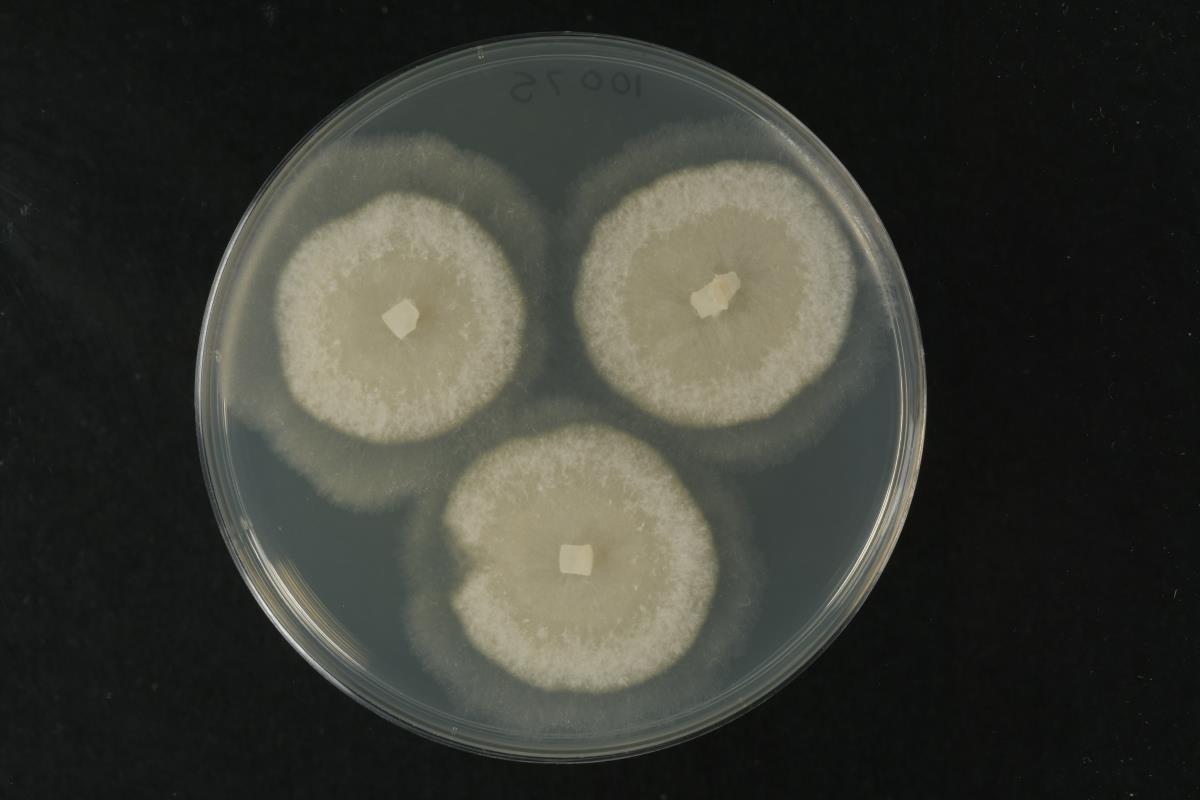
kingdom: Fungi
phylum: Ascomycota
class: Sordariomycetes
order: Diaporthales
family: Gnomoniaceae
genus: Gnomoniopsis
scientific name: Gnomoniopsis idaeicola
